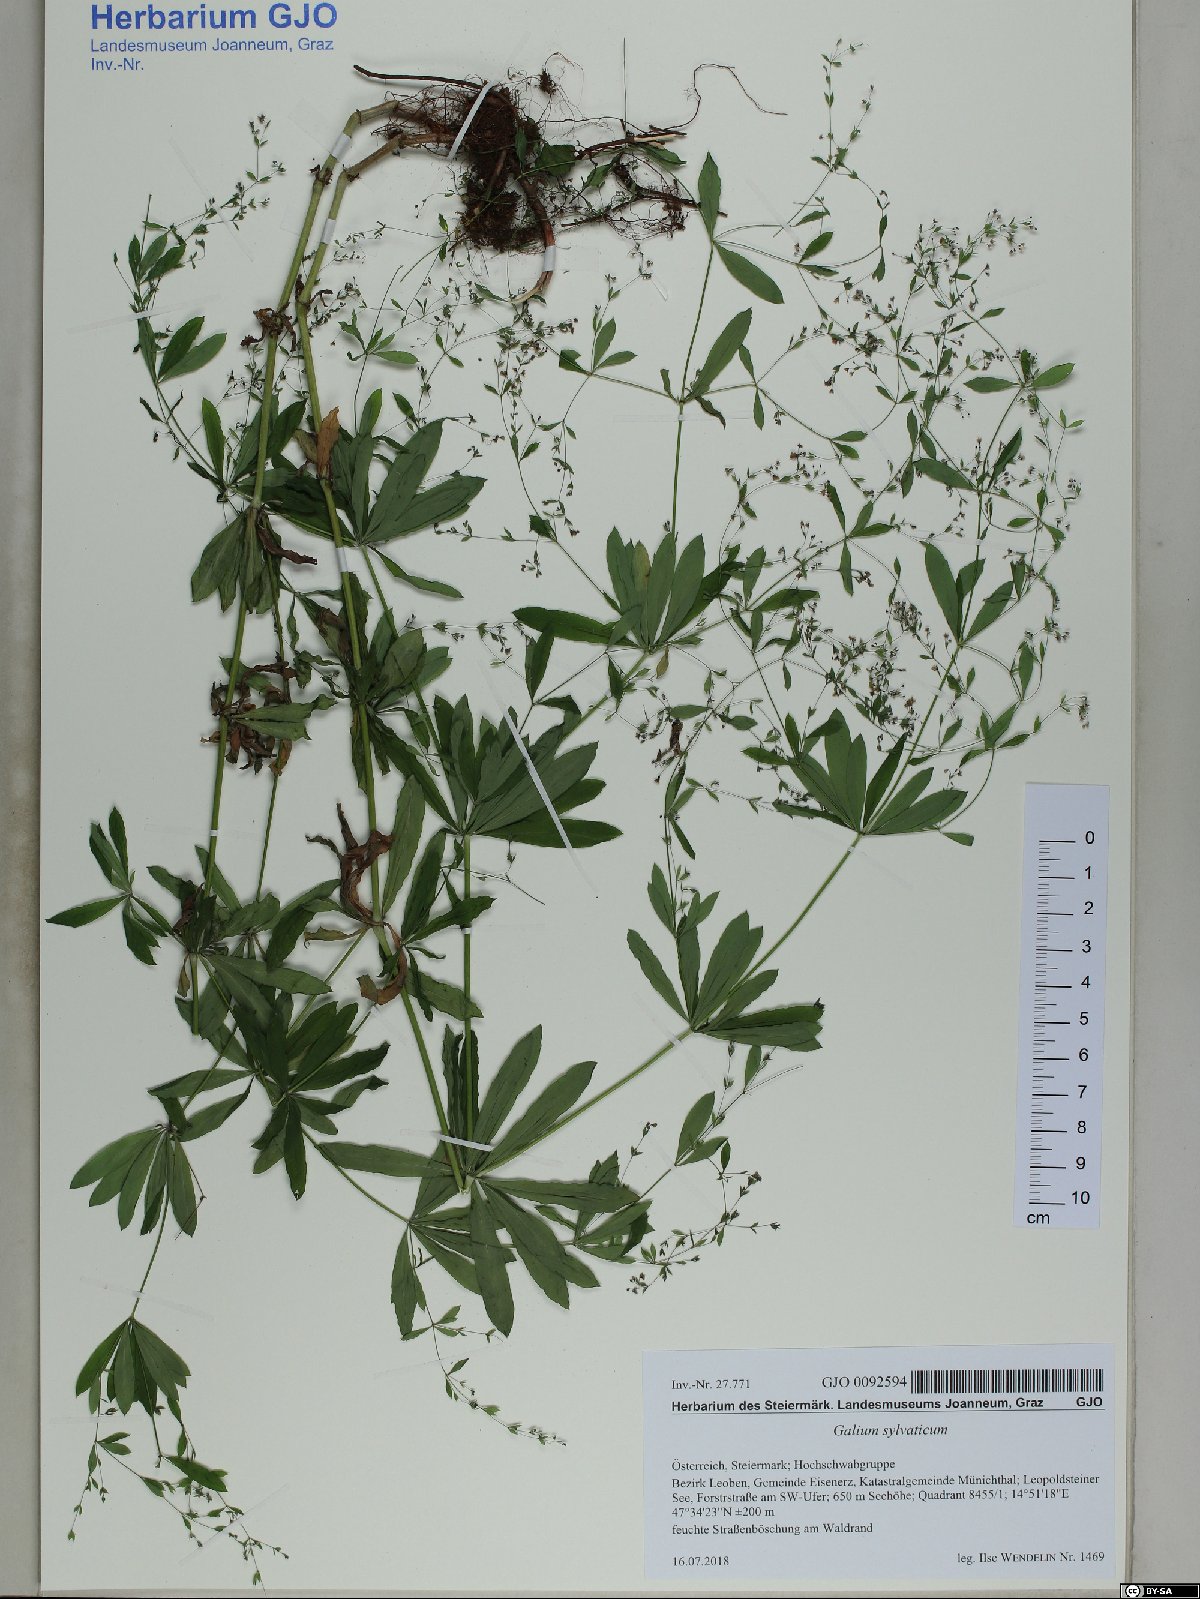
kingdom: Plantae
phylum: Tracheophyta
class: Magnoliopsida
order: Gentianales
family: Rubiaceae
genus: Galium
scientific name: Galium sylvaticum
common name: Wood bedstraw
